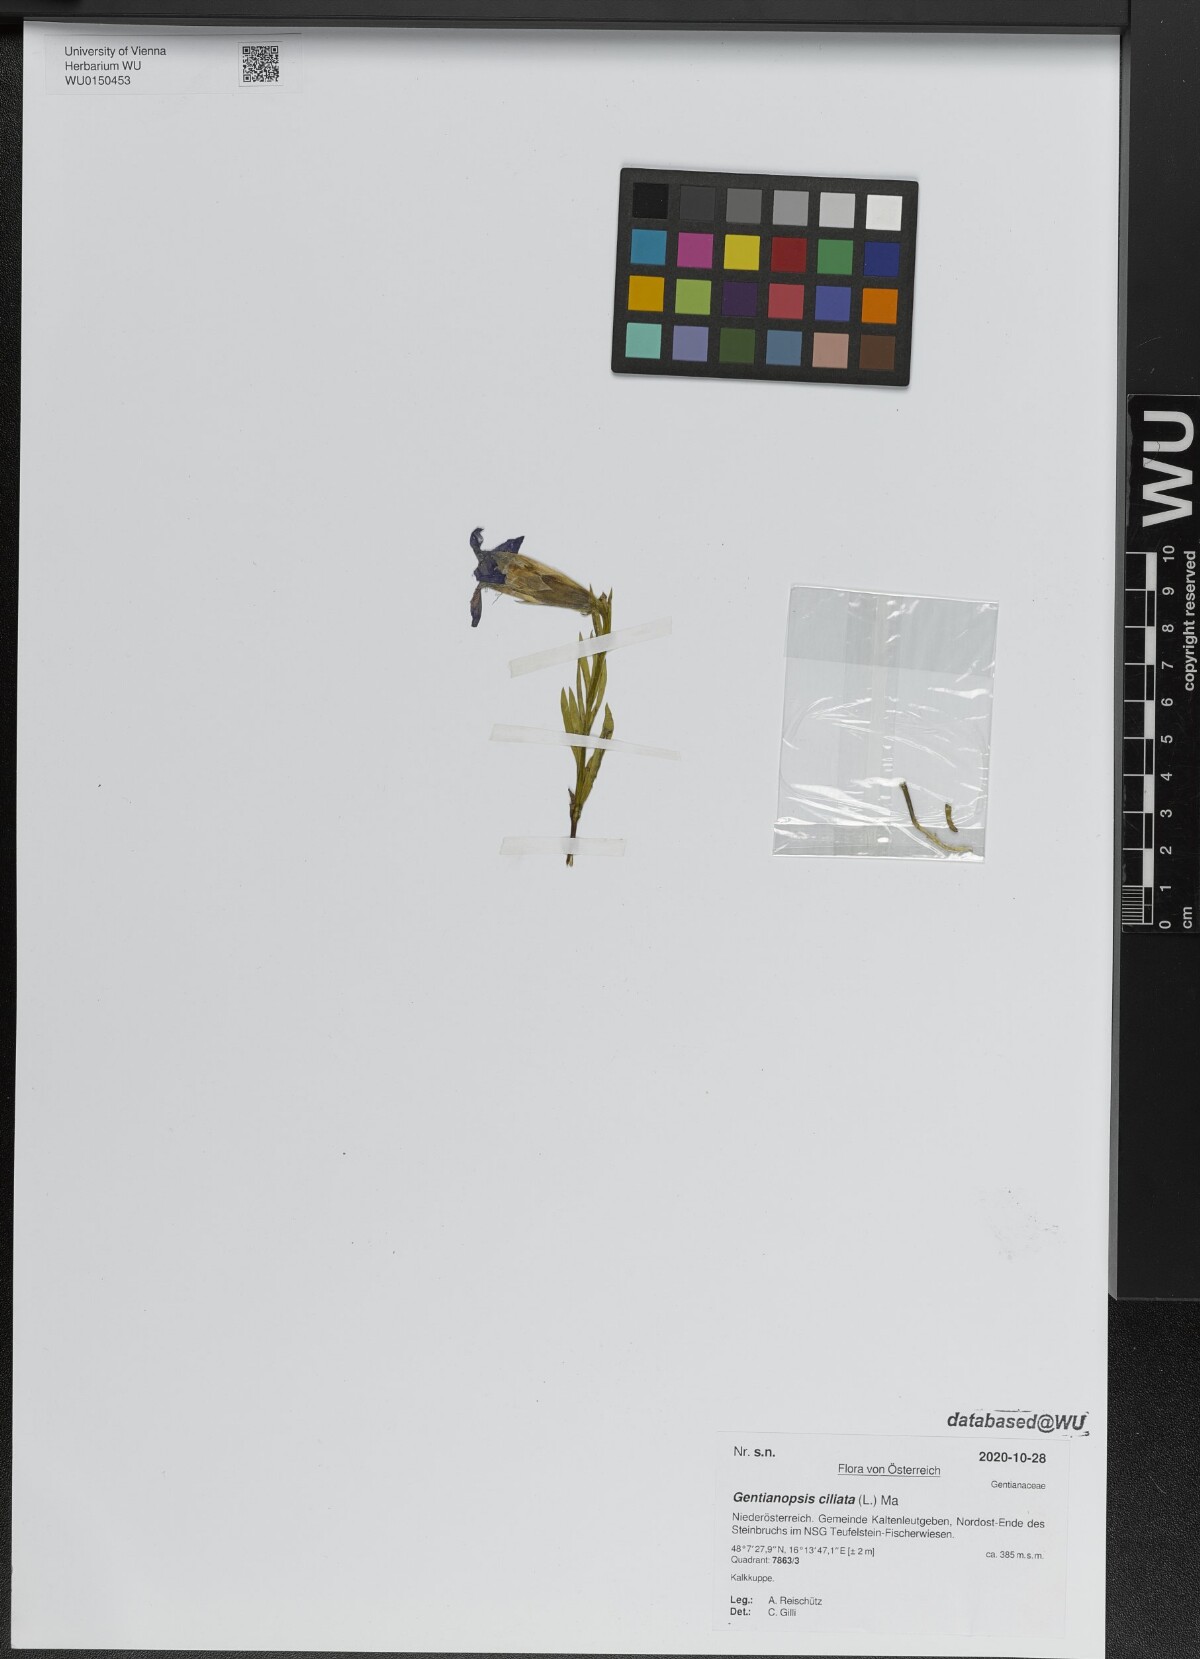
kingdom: Plantae
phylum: Tracheophyta
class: Magnoliopsida
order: Gentianales
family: Gentianaceae
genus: Gentianopsis
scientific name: Gentianopsis ciliata
